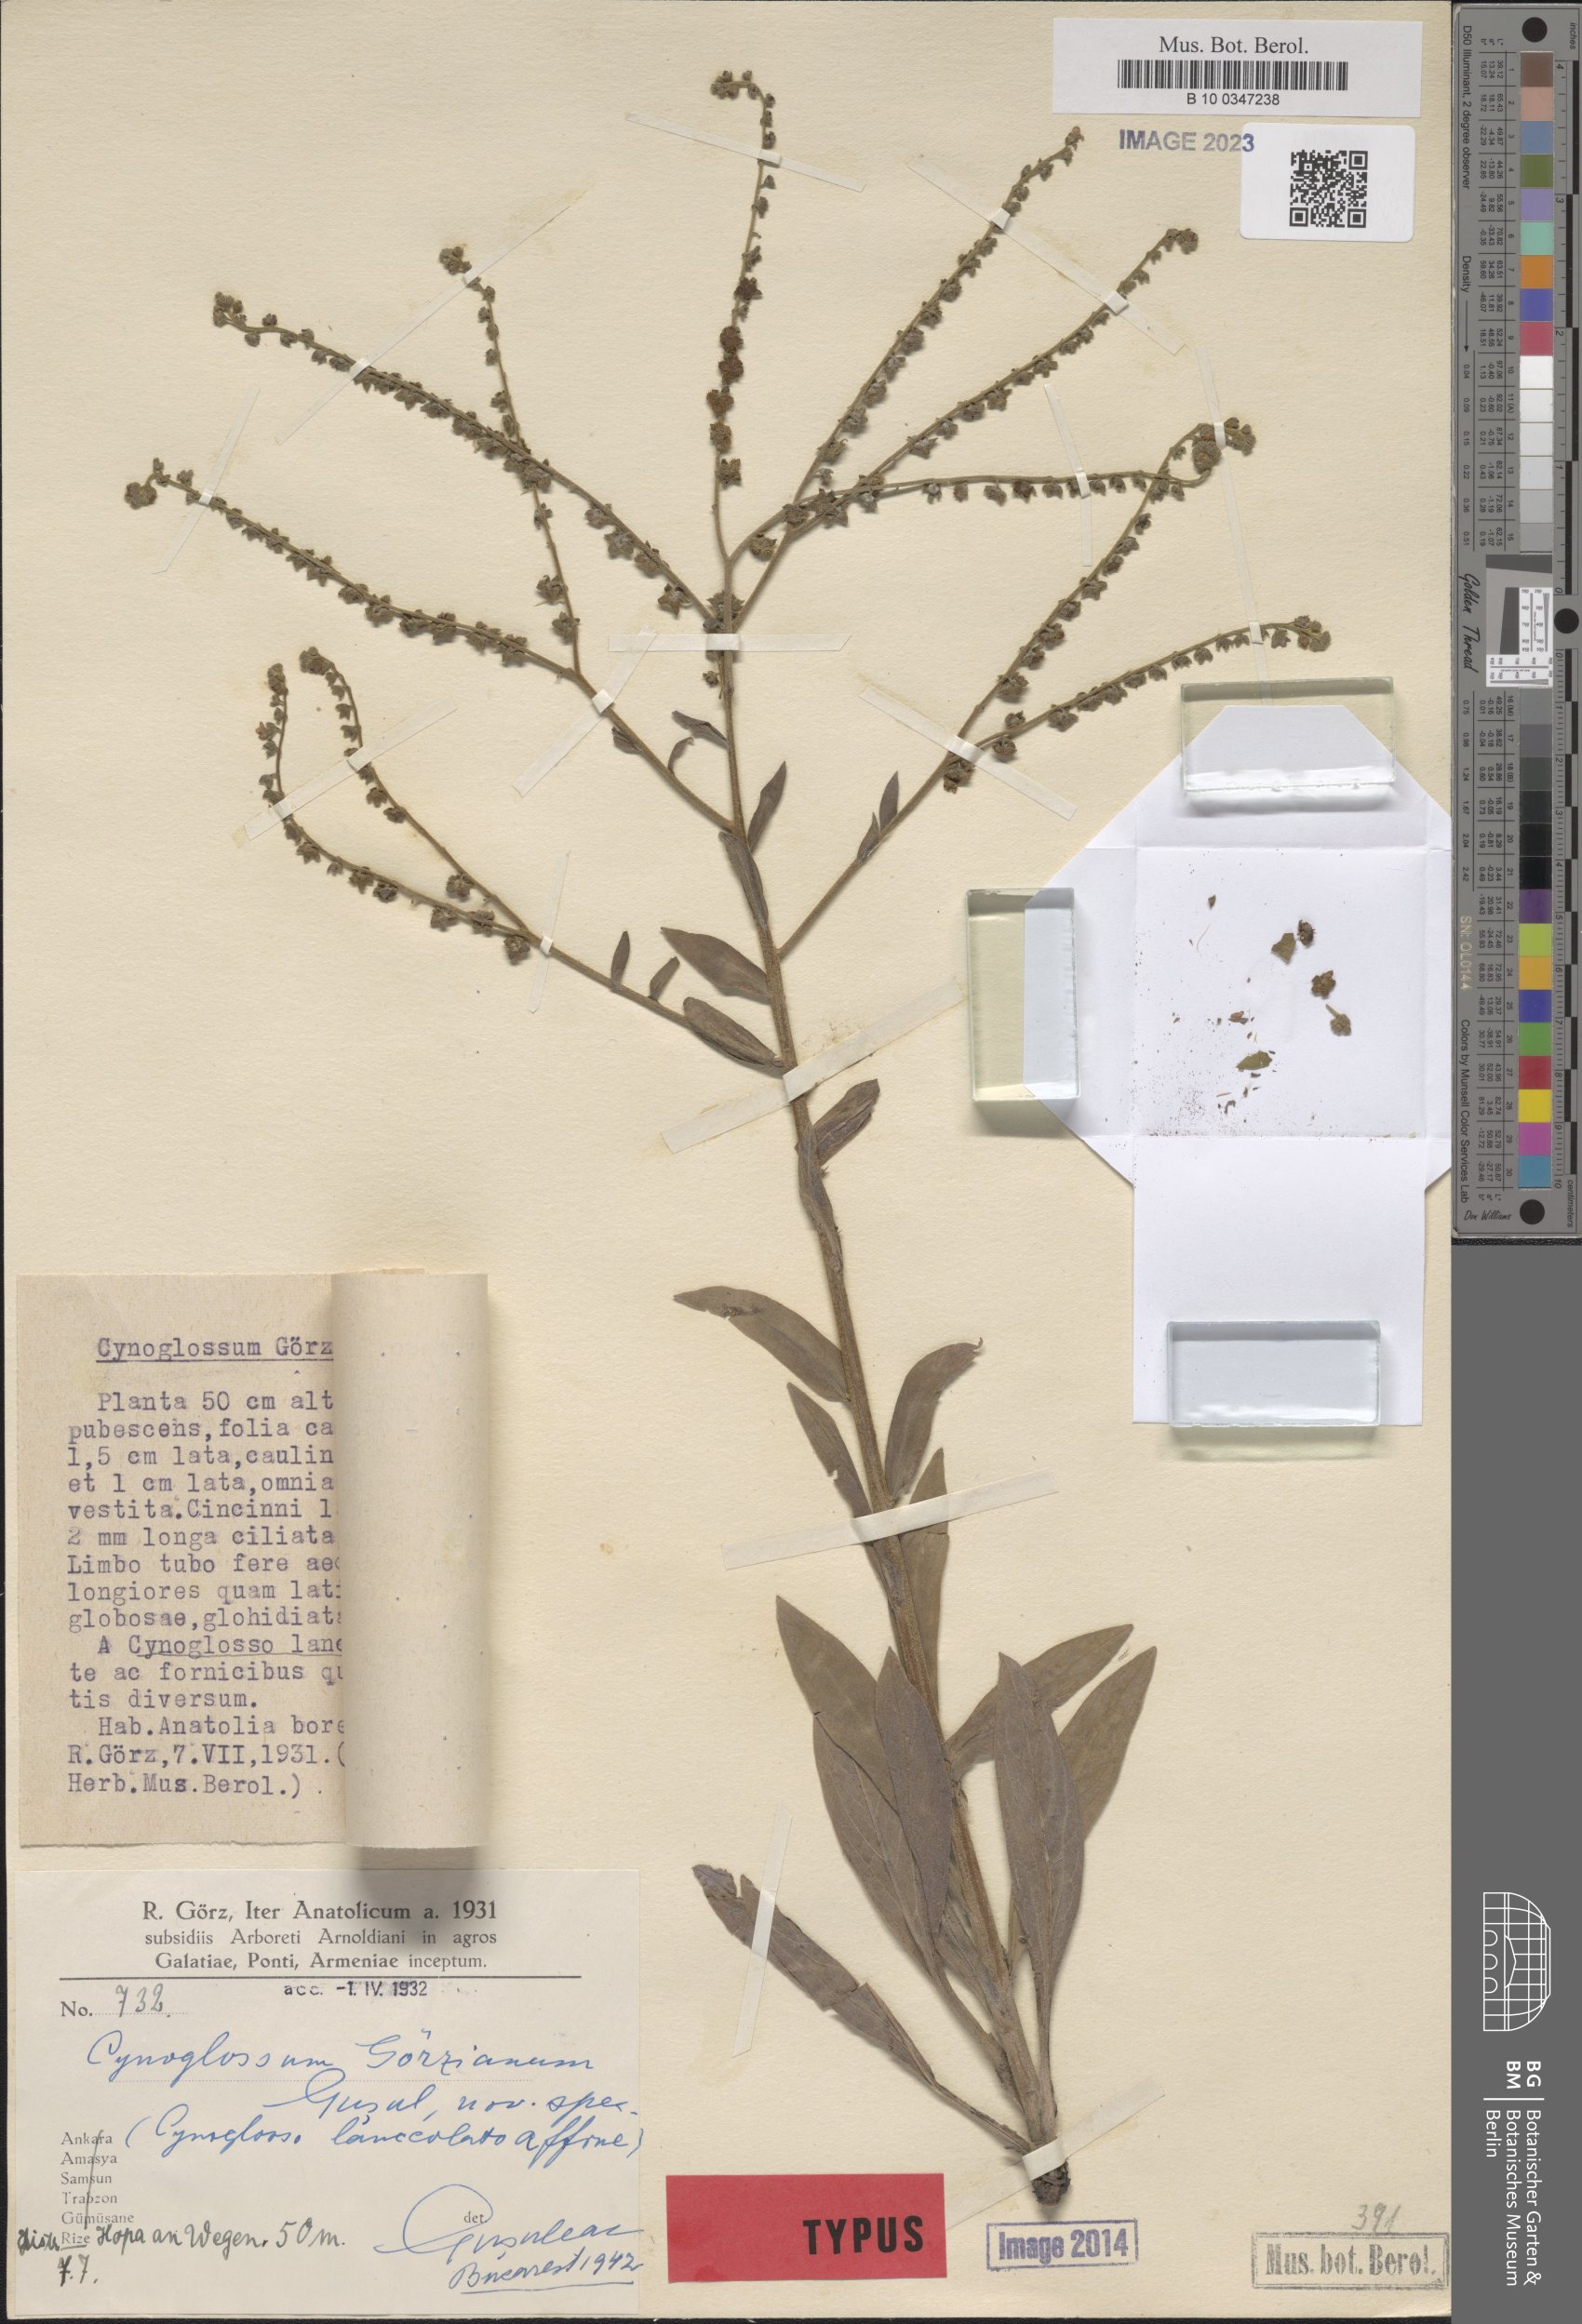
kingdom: Plantae
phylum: Tracheophyta
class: Magnoliopsida
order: Boraginales
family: Boraginaceae
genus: Cynoglossum
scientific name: Cynoglossum
